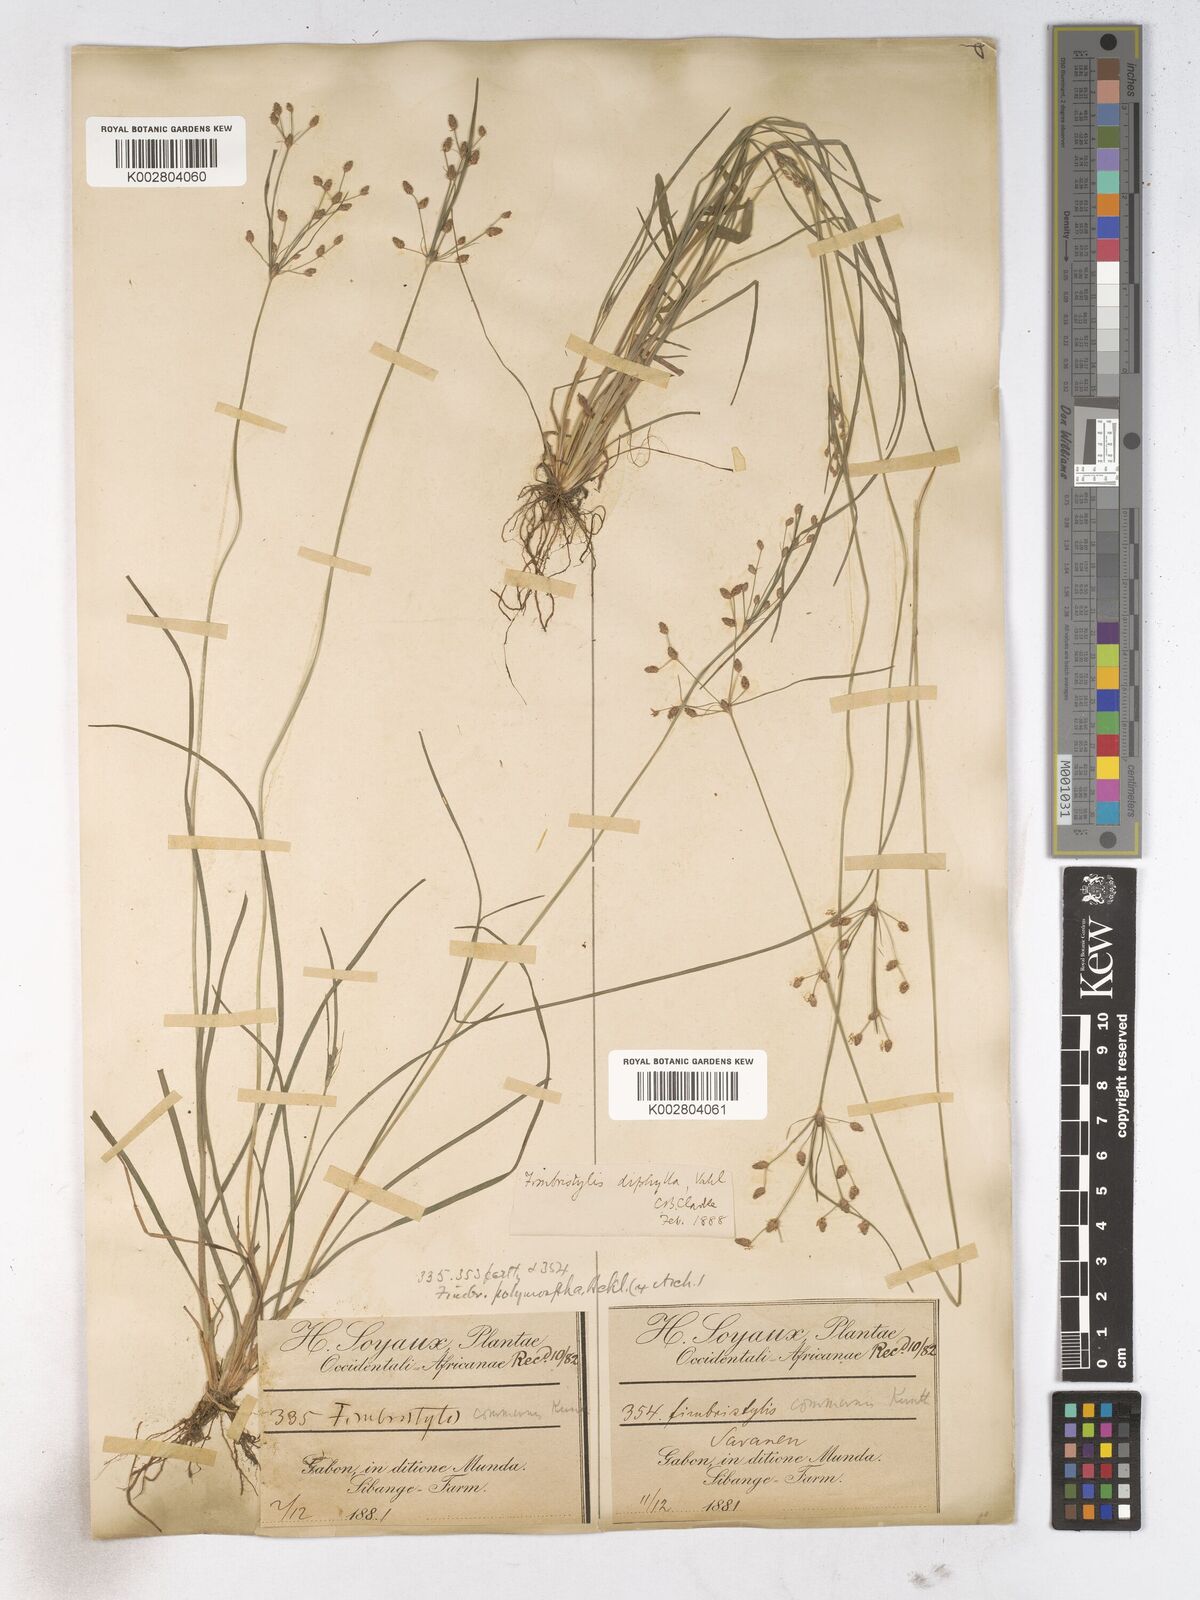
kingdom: Plantae
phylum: Tracheophyta
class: Liliopsida
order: Poales
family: Cyperaceae
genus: Fimbristylis
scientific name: Fimbristylis dichotoma
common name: Forked fimbry
